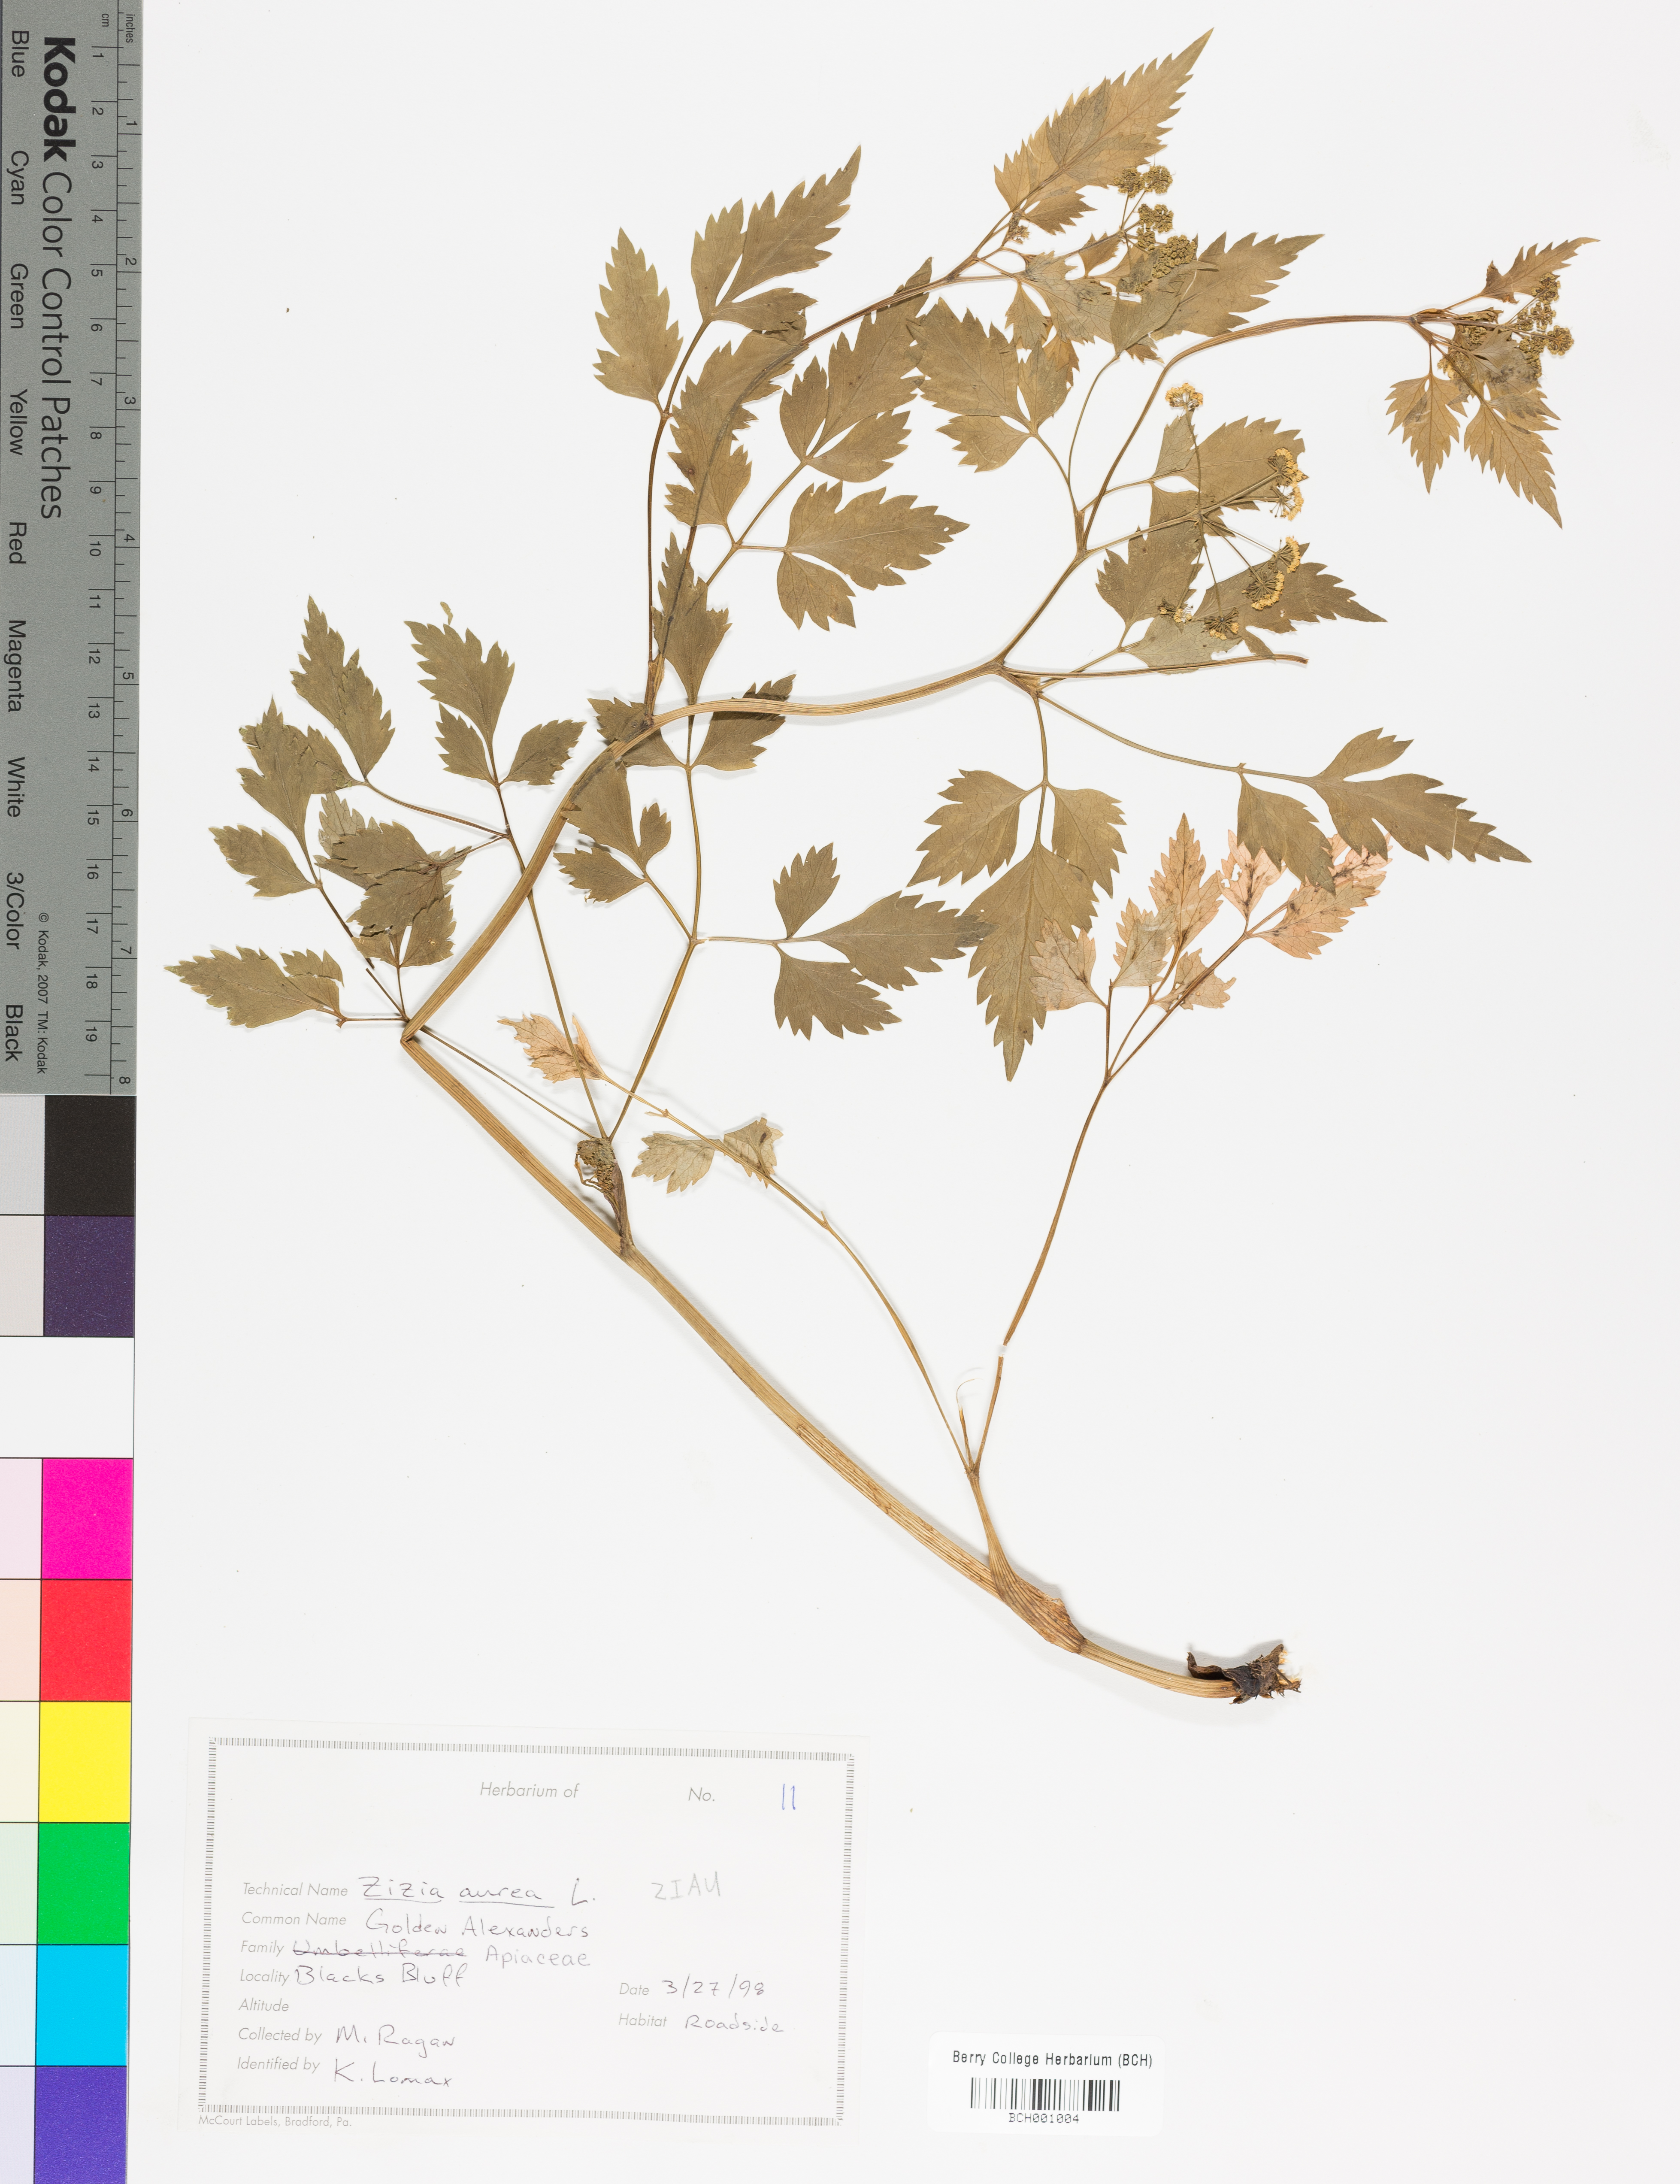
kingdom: Plantae
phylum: Tracheophyta
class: Magnoliopsida
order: Apiales
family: Apiaceae
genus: Zizia
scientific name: Zizia aurea
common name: Golden alexanders
